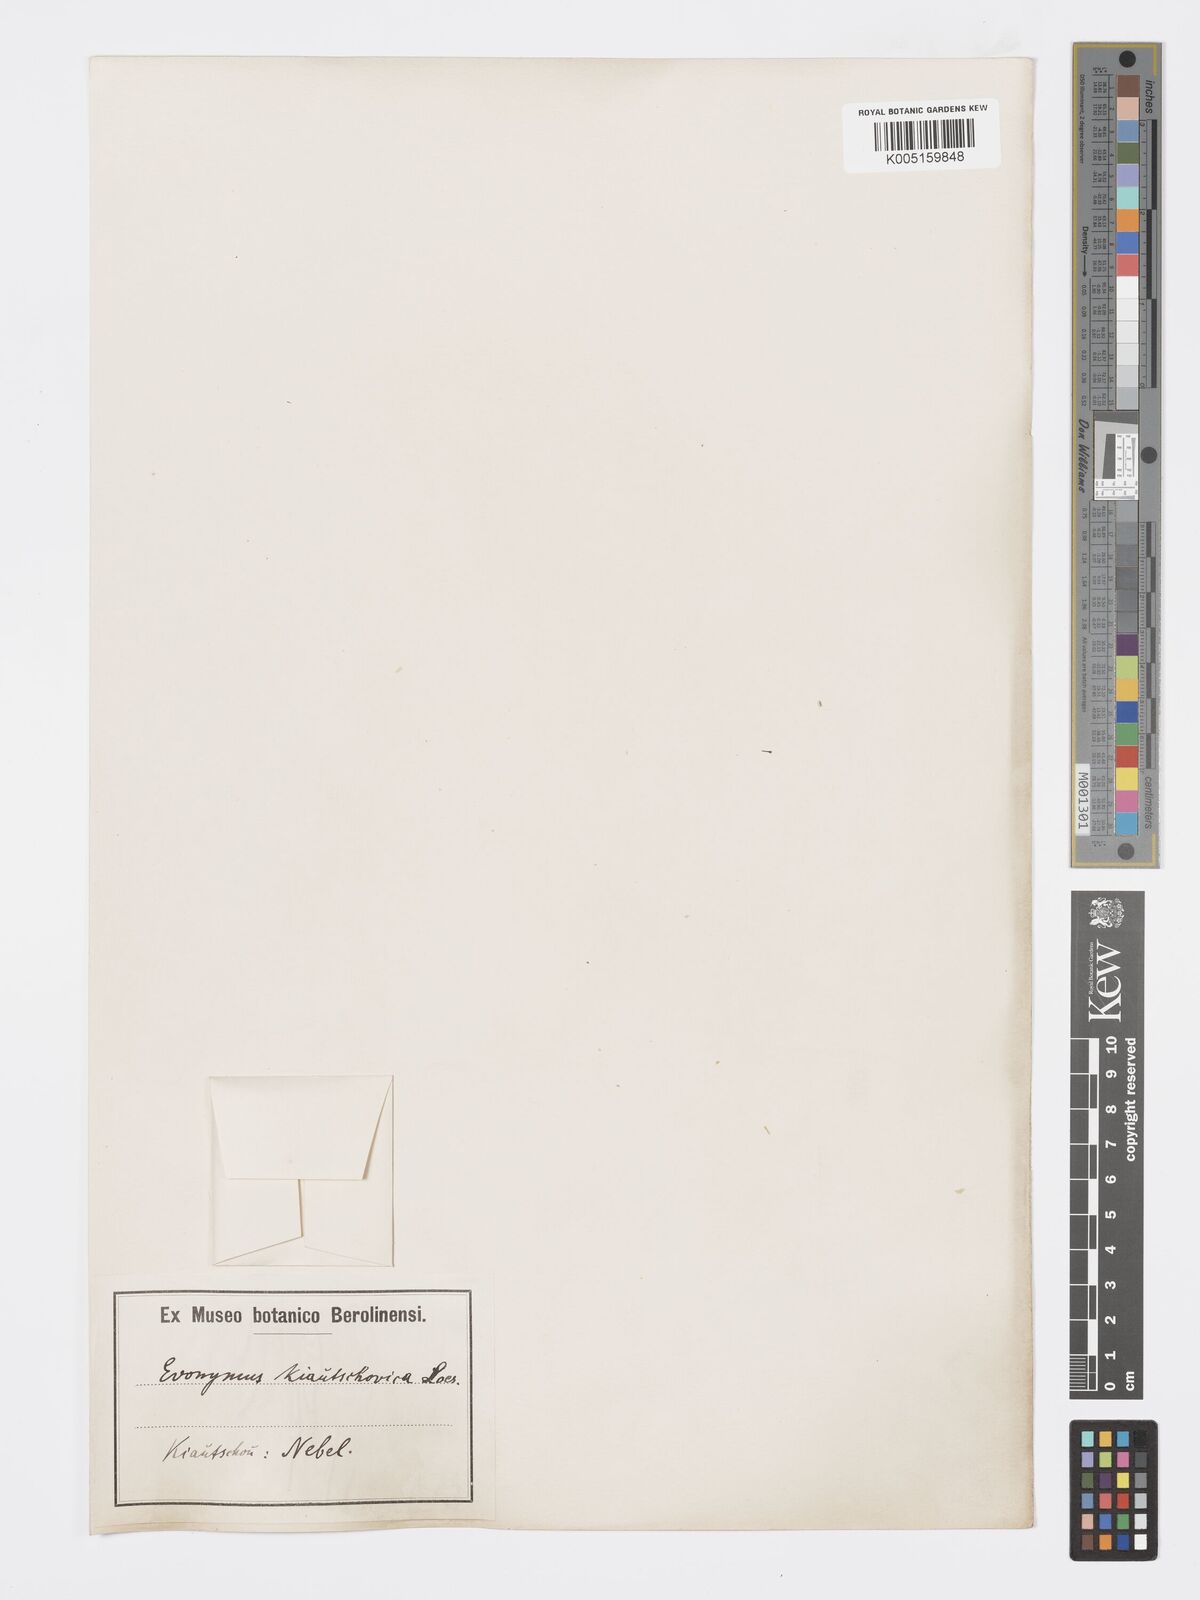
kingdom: Plantae
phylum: Tracheophyta
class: Magnoliopsida
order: Celastrales
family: Celastraceae
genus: Euonymus
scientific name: Euonymus fortunei
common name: Climbing euonymus
